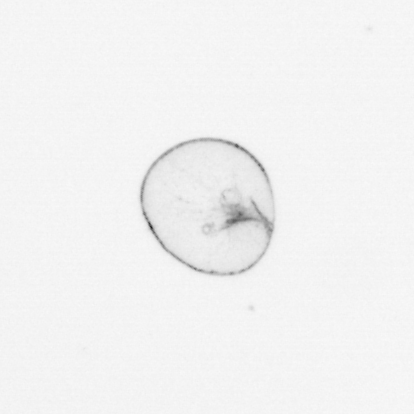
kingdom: Chromista
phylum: Myzozoa
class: Dinophyceae
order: Noctilucales
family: Noctilucaceae
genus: Noctiluca
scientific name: Noctiluca scintillans
